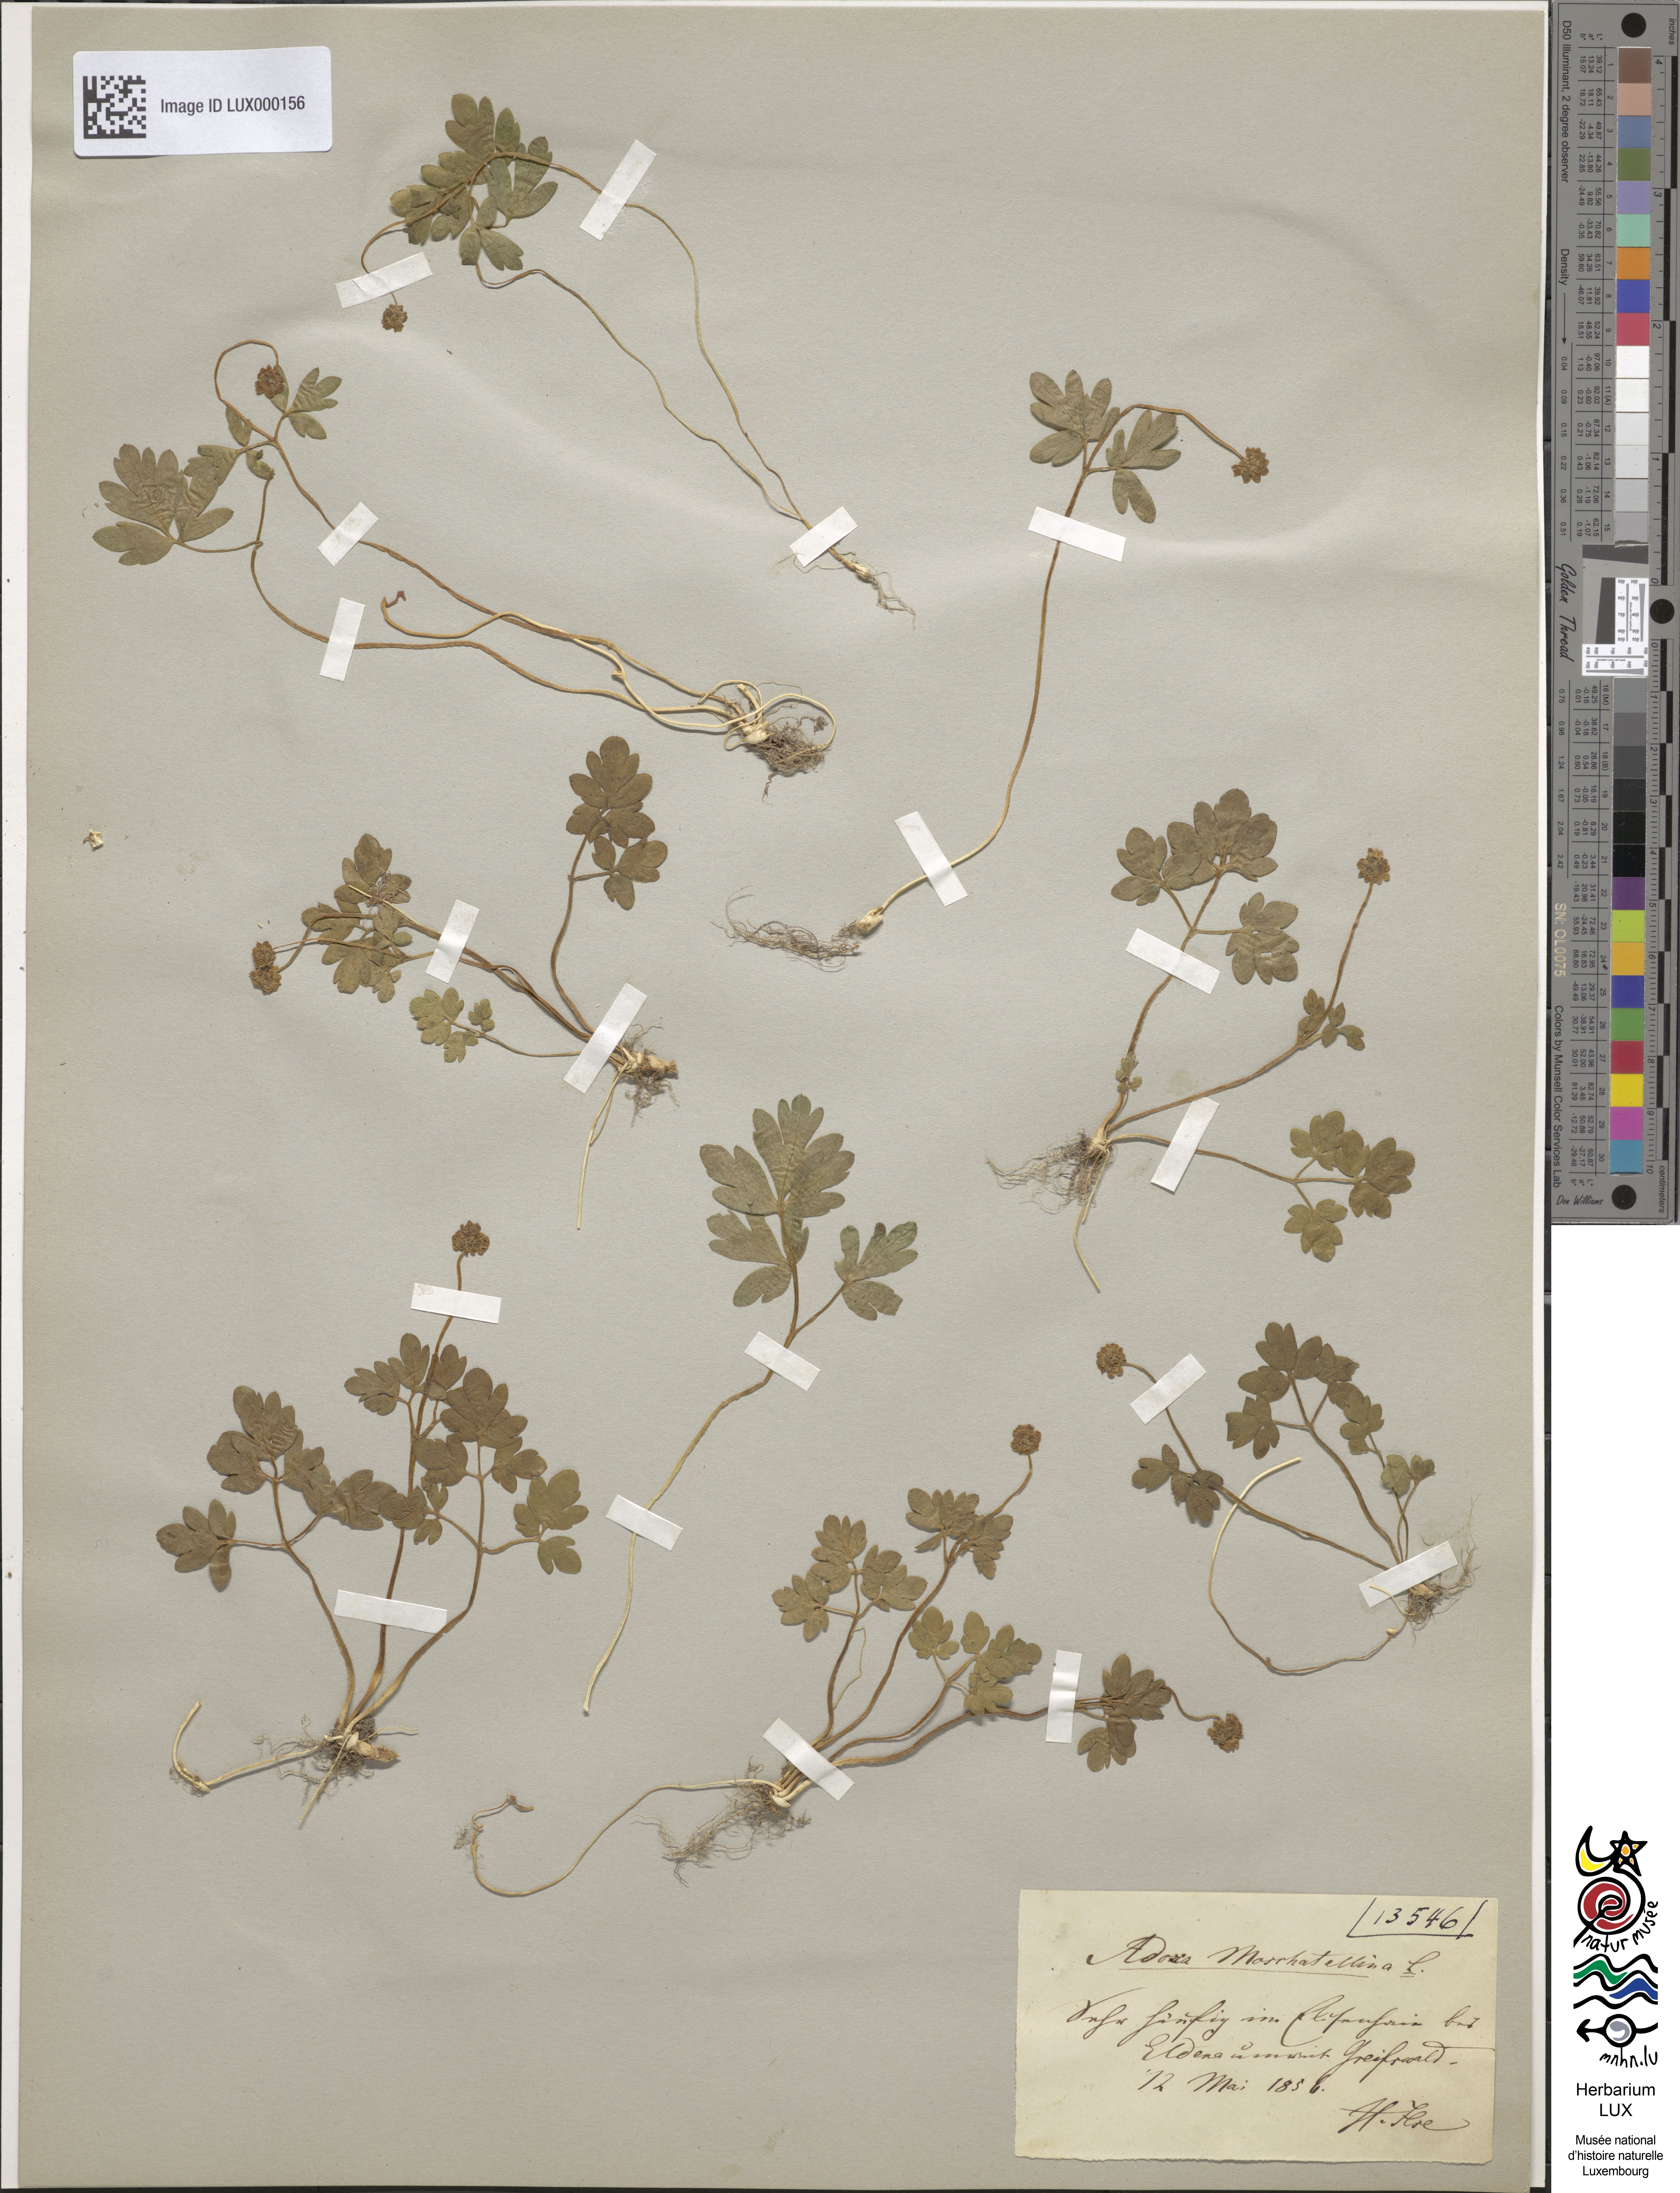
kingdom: Plantae
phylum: Tracheophyta
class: Magnoliopsida
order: Dipsacales
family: Viburnaceae
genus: Adoxa
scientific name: Adoxa moschatellina
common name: Moschatel
